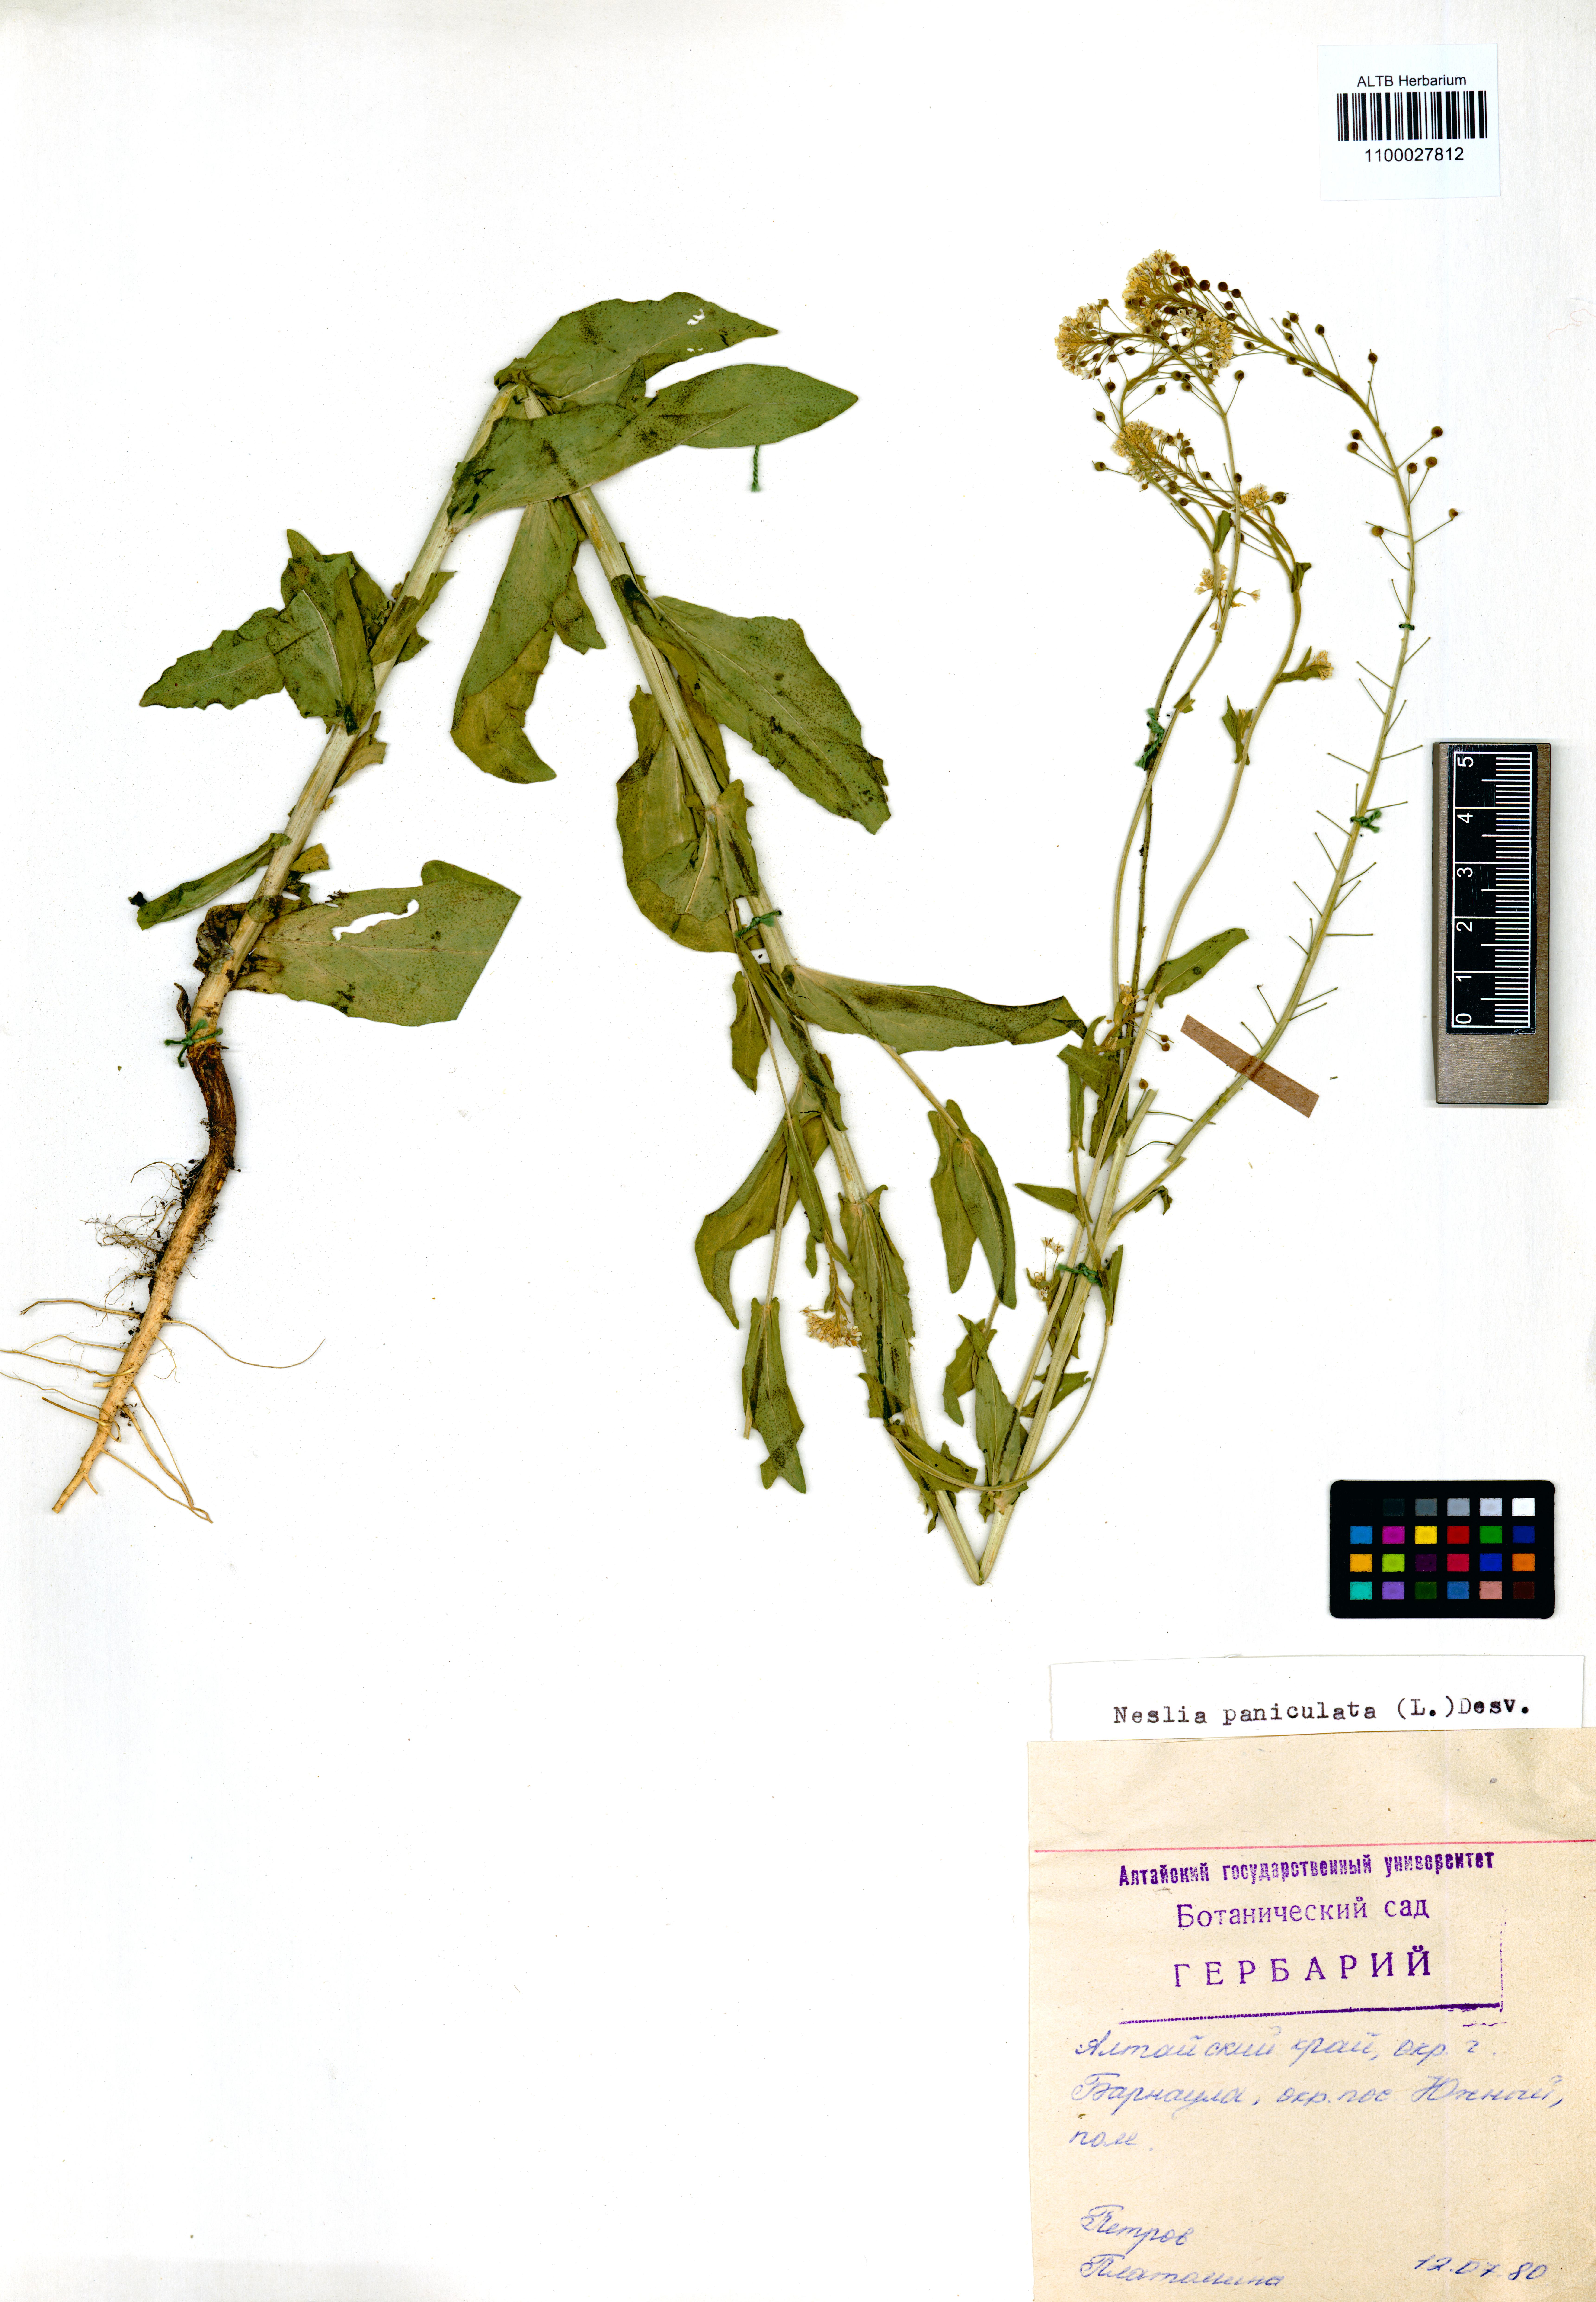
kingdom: Plantae
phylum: Tracheophyta
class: Magnoliopsida
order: Brassicales
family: Brassicaceae
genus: Neslia
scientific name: Neslia paniculata
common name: Ball mustard
